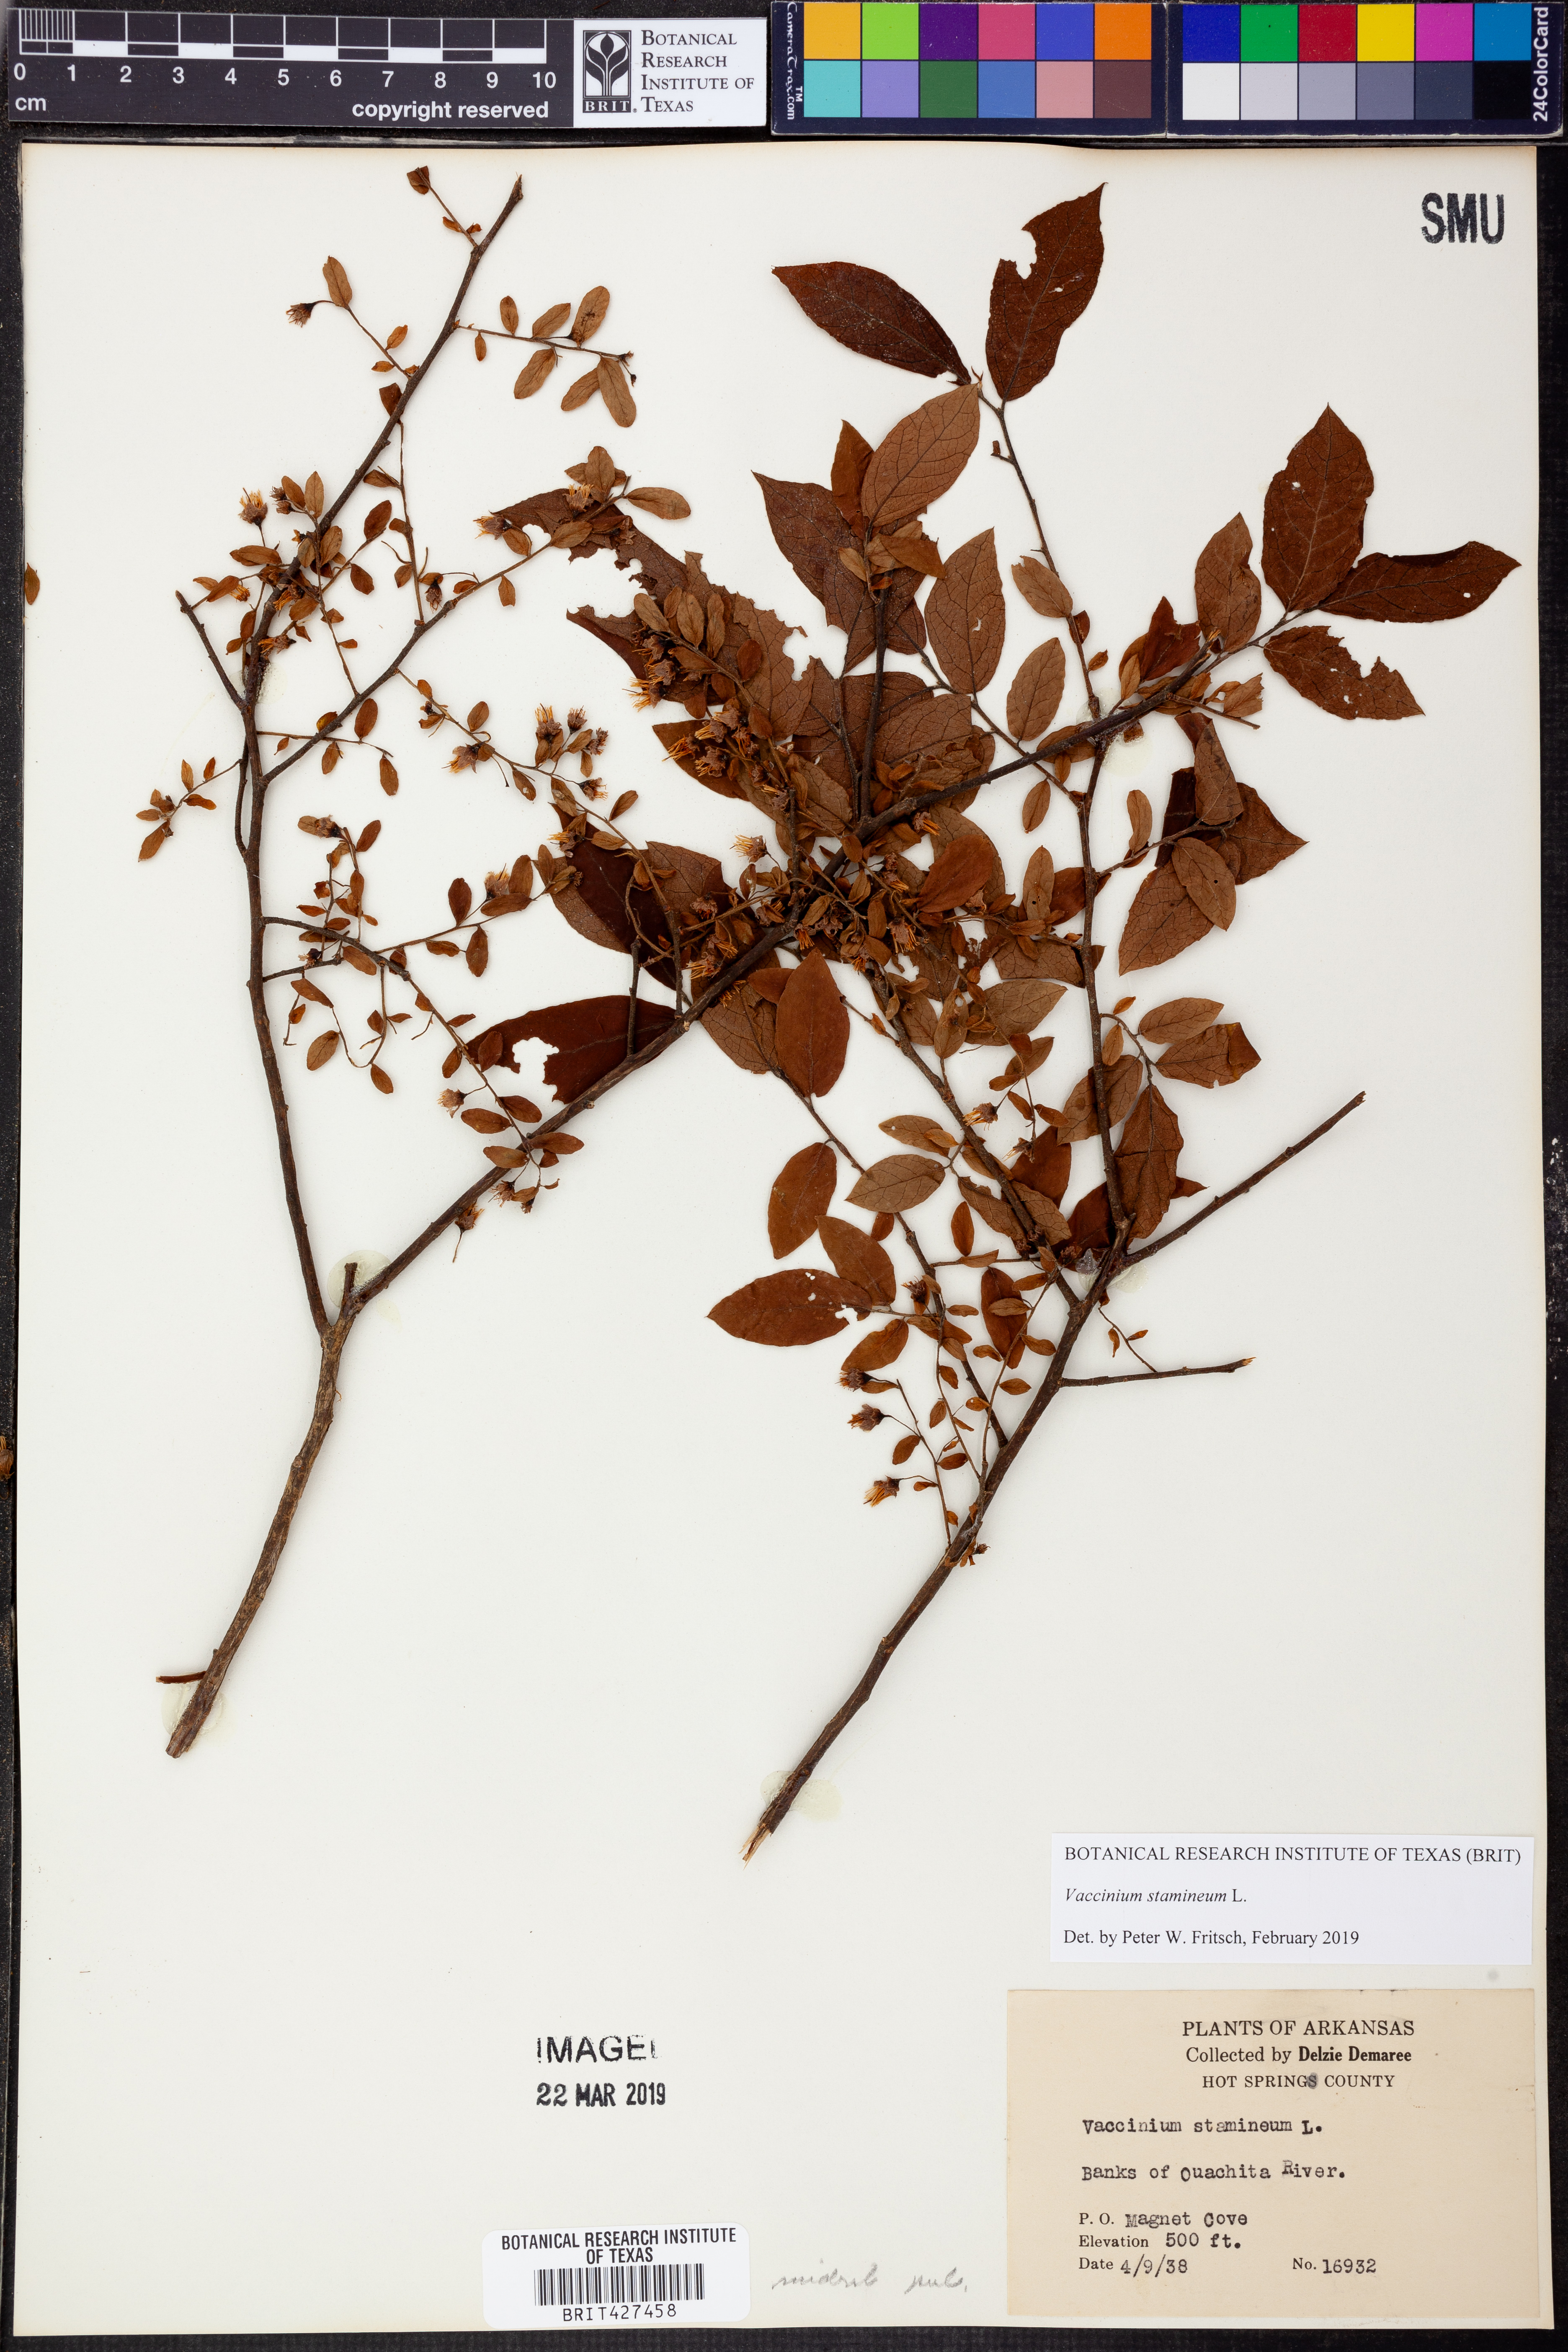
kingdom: Plantae
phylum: Tracheophyta
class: Magnoliopsida
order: Ericales
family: Ericaceae
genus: Vaccinium
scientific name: Vaccinium stamineum
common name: Deerberry
